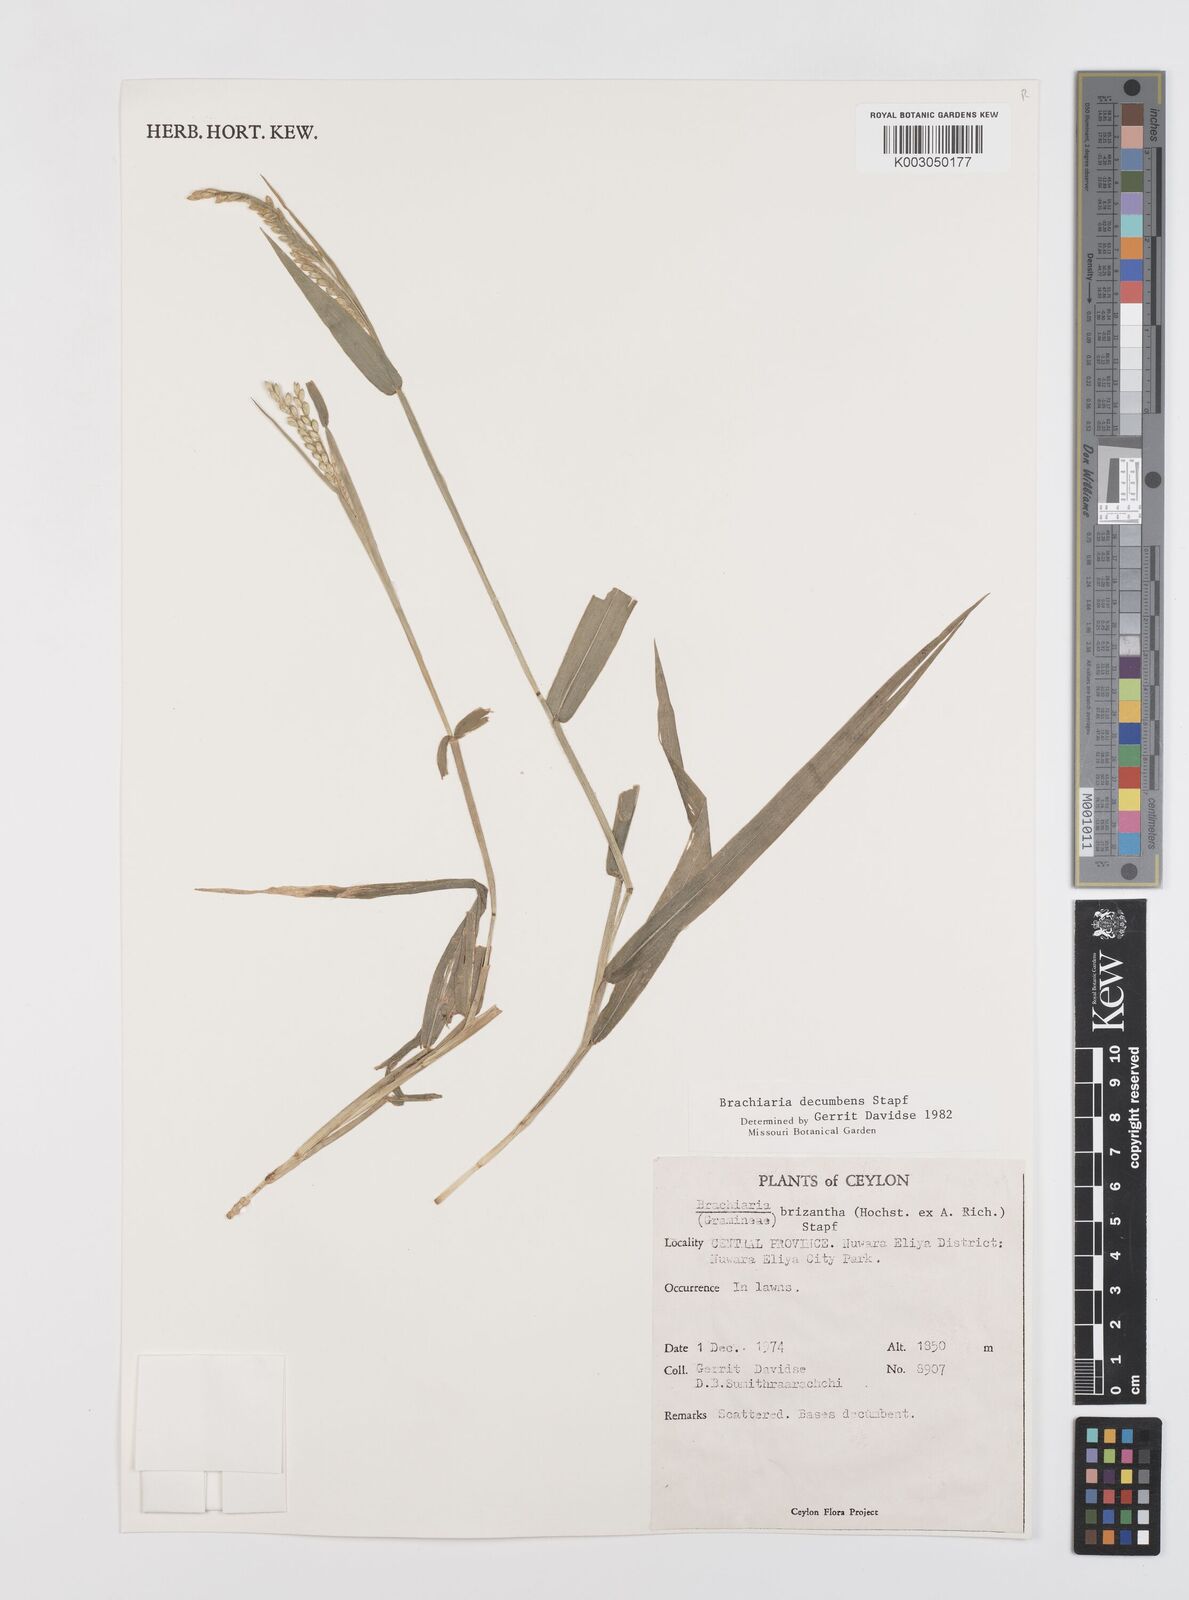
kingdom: Plantae
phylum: Tracheophyta
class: Liliopsida
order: Poales
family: Poaceae
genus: Urochloa
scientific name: Urochloa eminii
